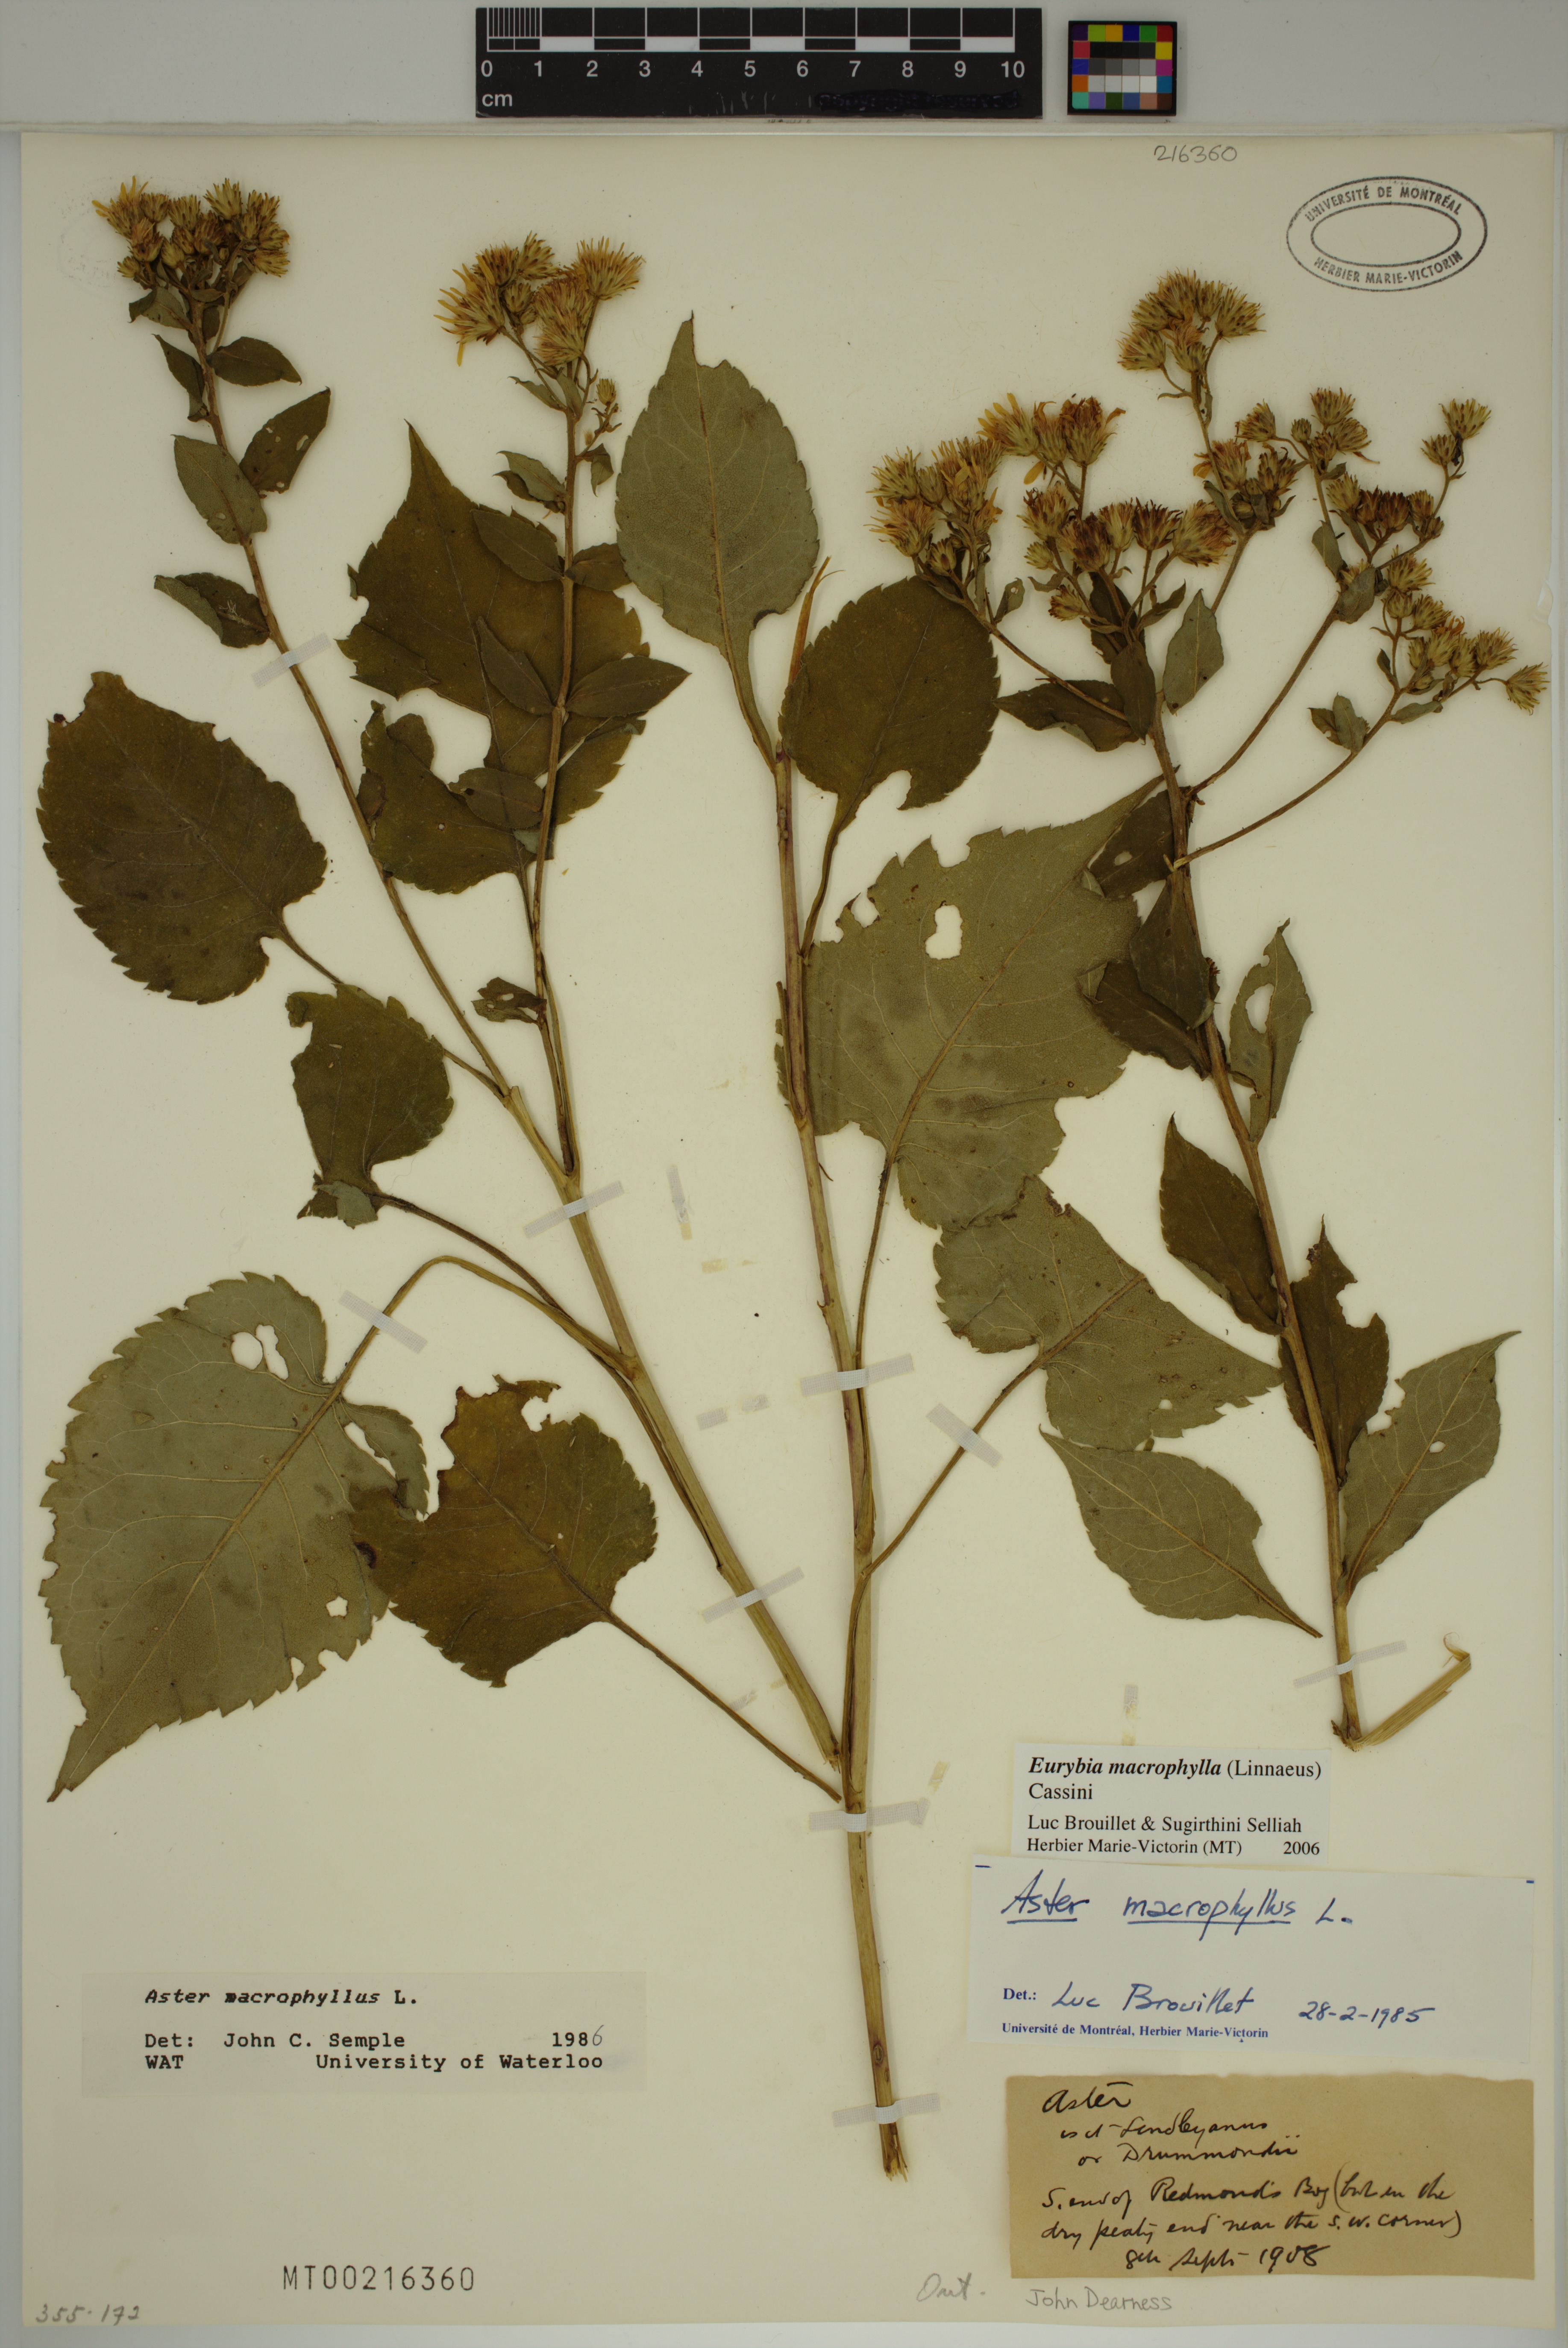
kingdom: Plantae
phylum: Tracheophyta
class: Magnoliopsida
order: Asterales
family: Asteraceae
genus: Eurybia
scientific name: Eurybia macrophylla
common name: Big-leaved aster
